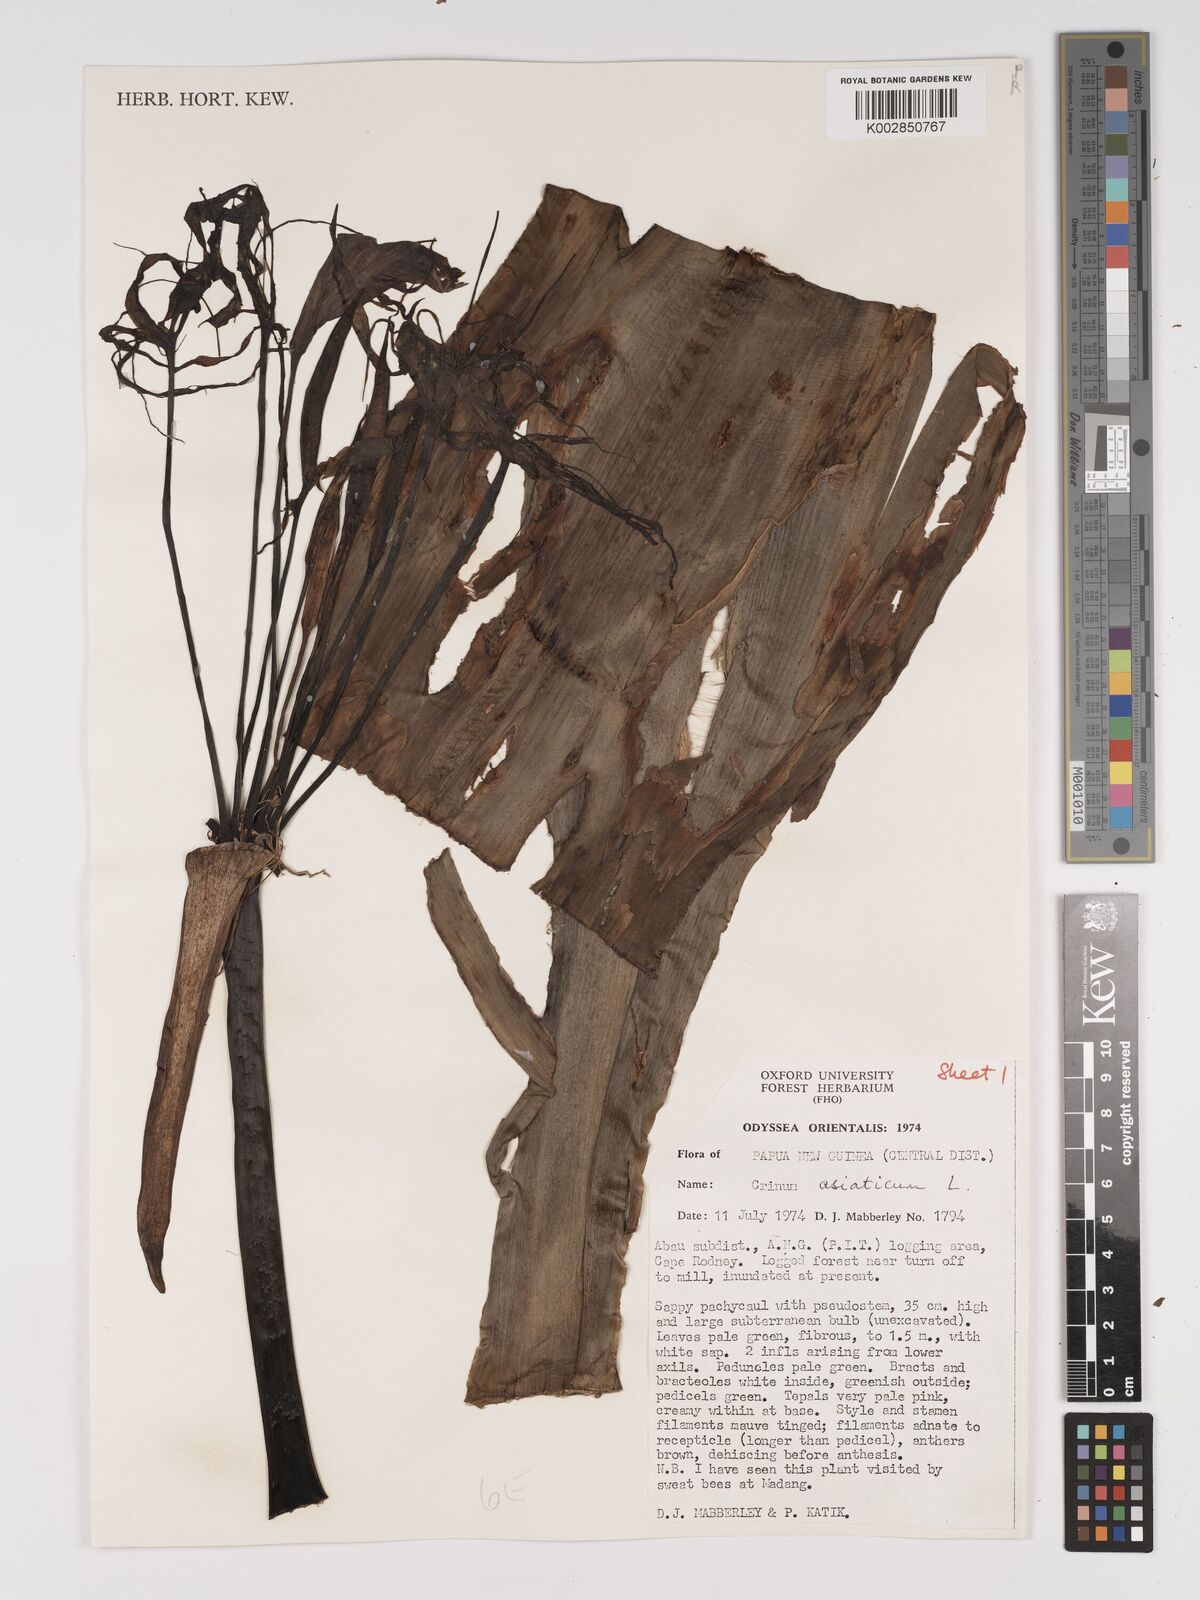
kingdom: Plantae
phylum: Tracheophyta
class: Liliopsida
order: Asparagales
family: Amaryllidaceae
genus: Crinum
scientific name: Crinum asiaticum
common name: Poisonbulb
